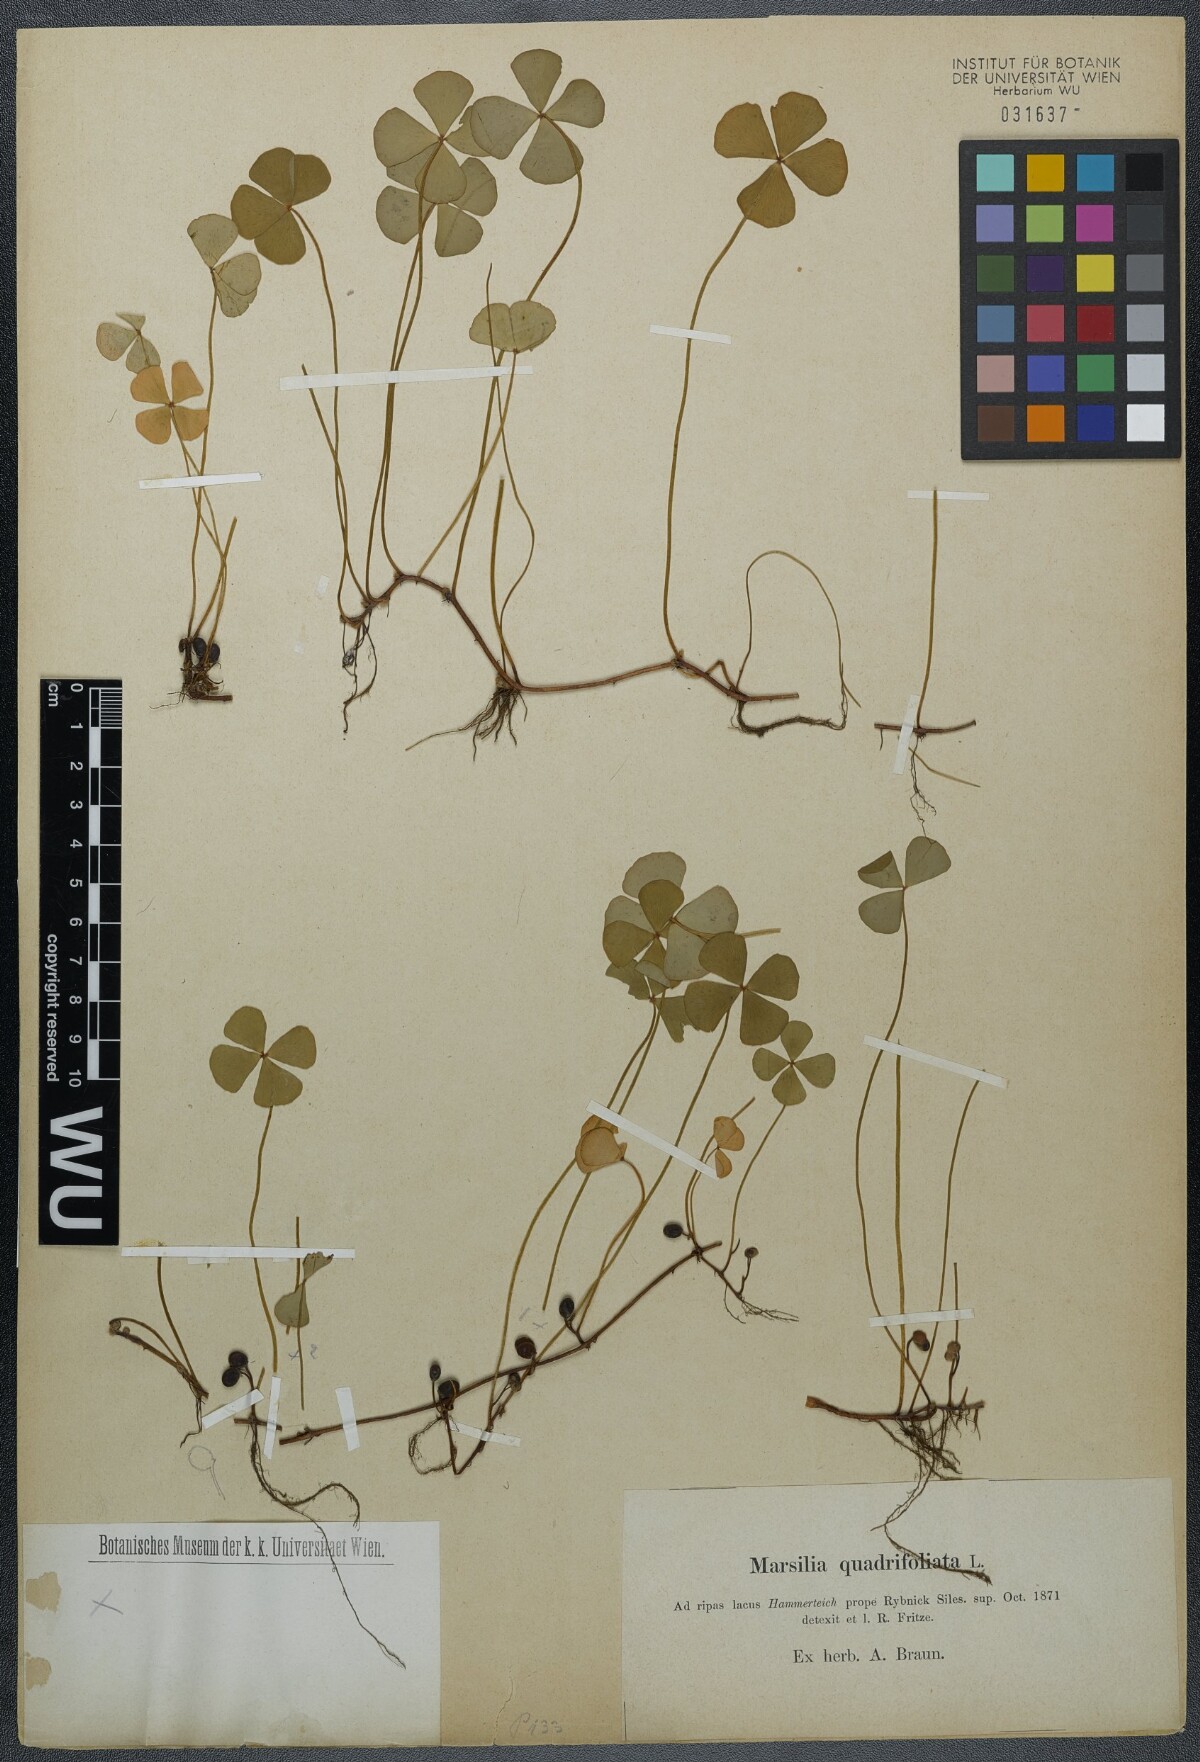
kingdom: Plantae
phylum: Tracheophyta
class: Polypodiopsida
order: Salviniales
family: Marsileaceae
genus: Marsilea
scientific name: Marsilea quadrifolia
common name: Water shamrock
